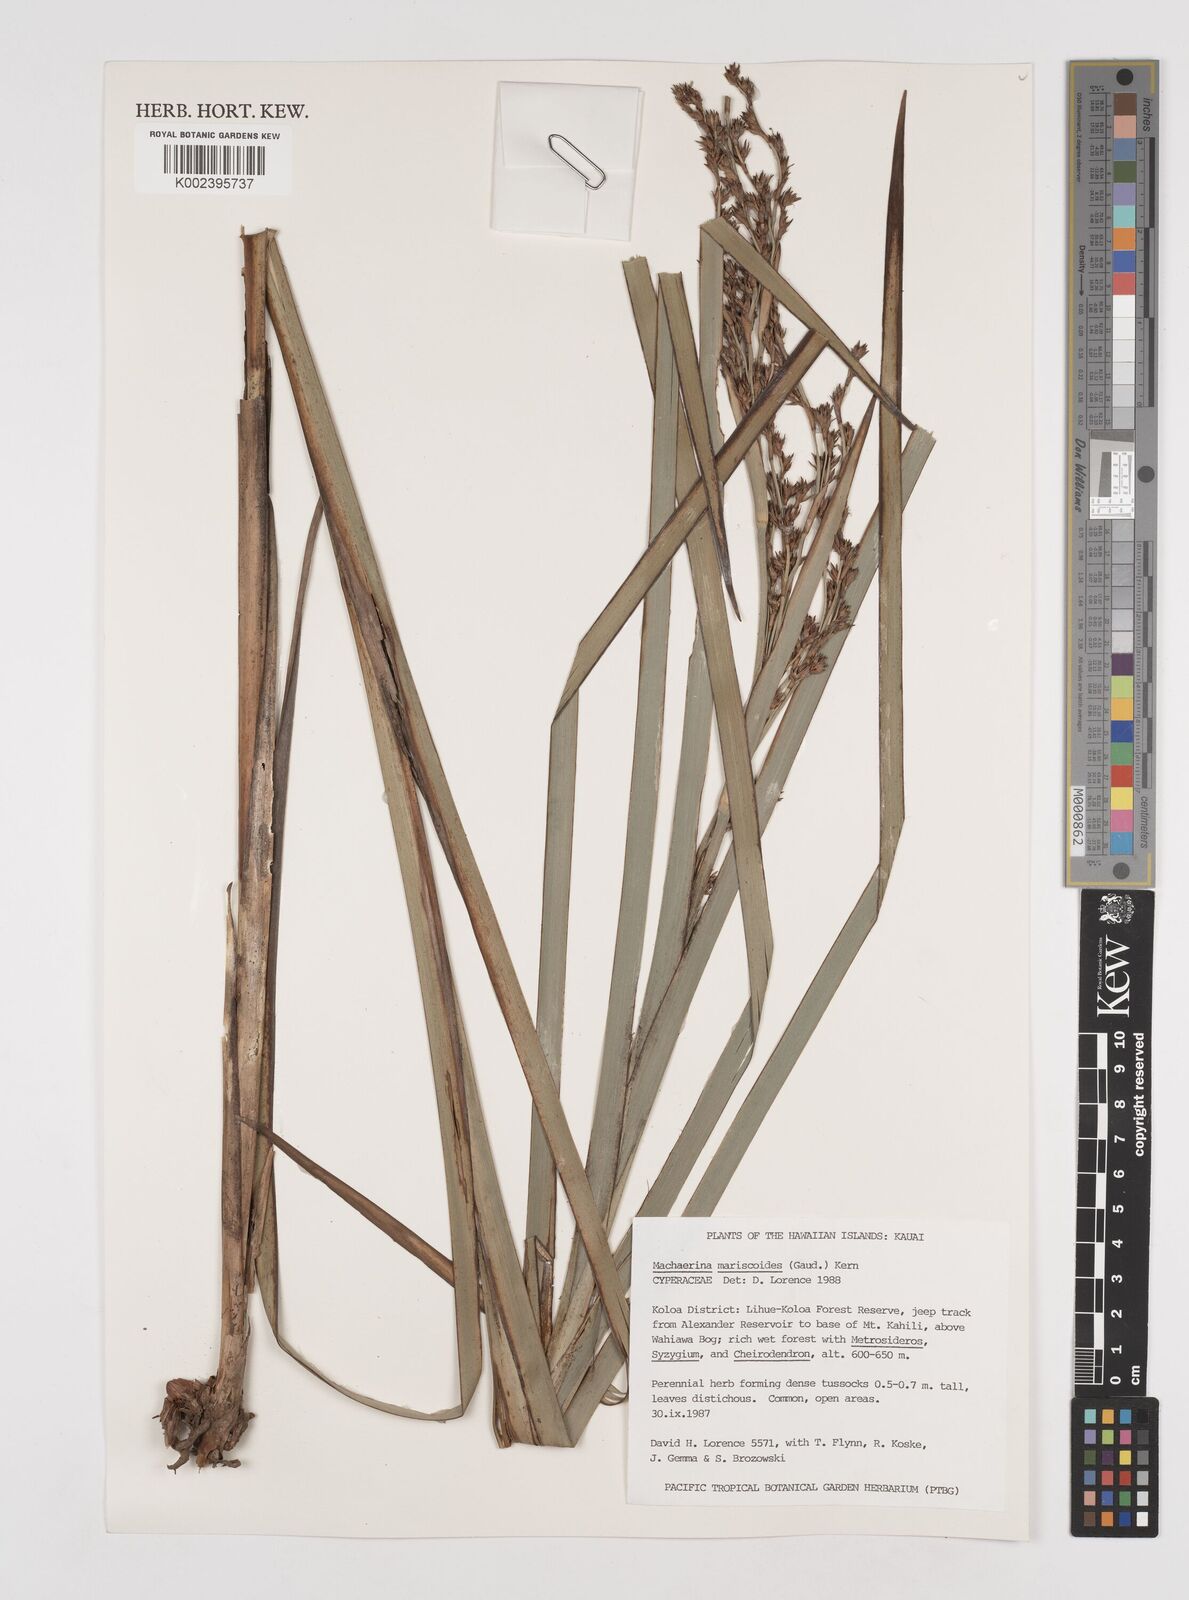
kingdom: Plantae
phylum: Tracheophyta
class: Liliopsida
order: Poales
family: Cyperaceae
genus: Machaerina
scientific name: Machaerina mariscoides
